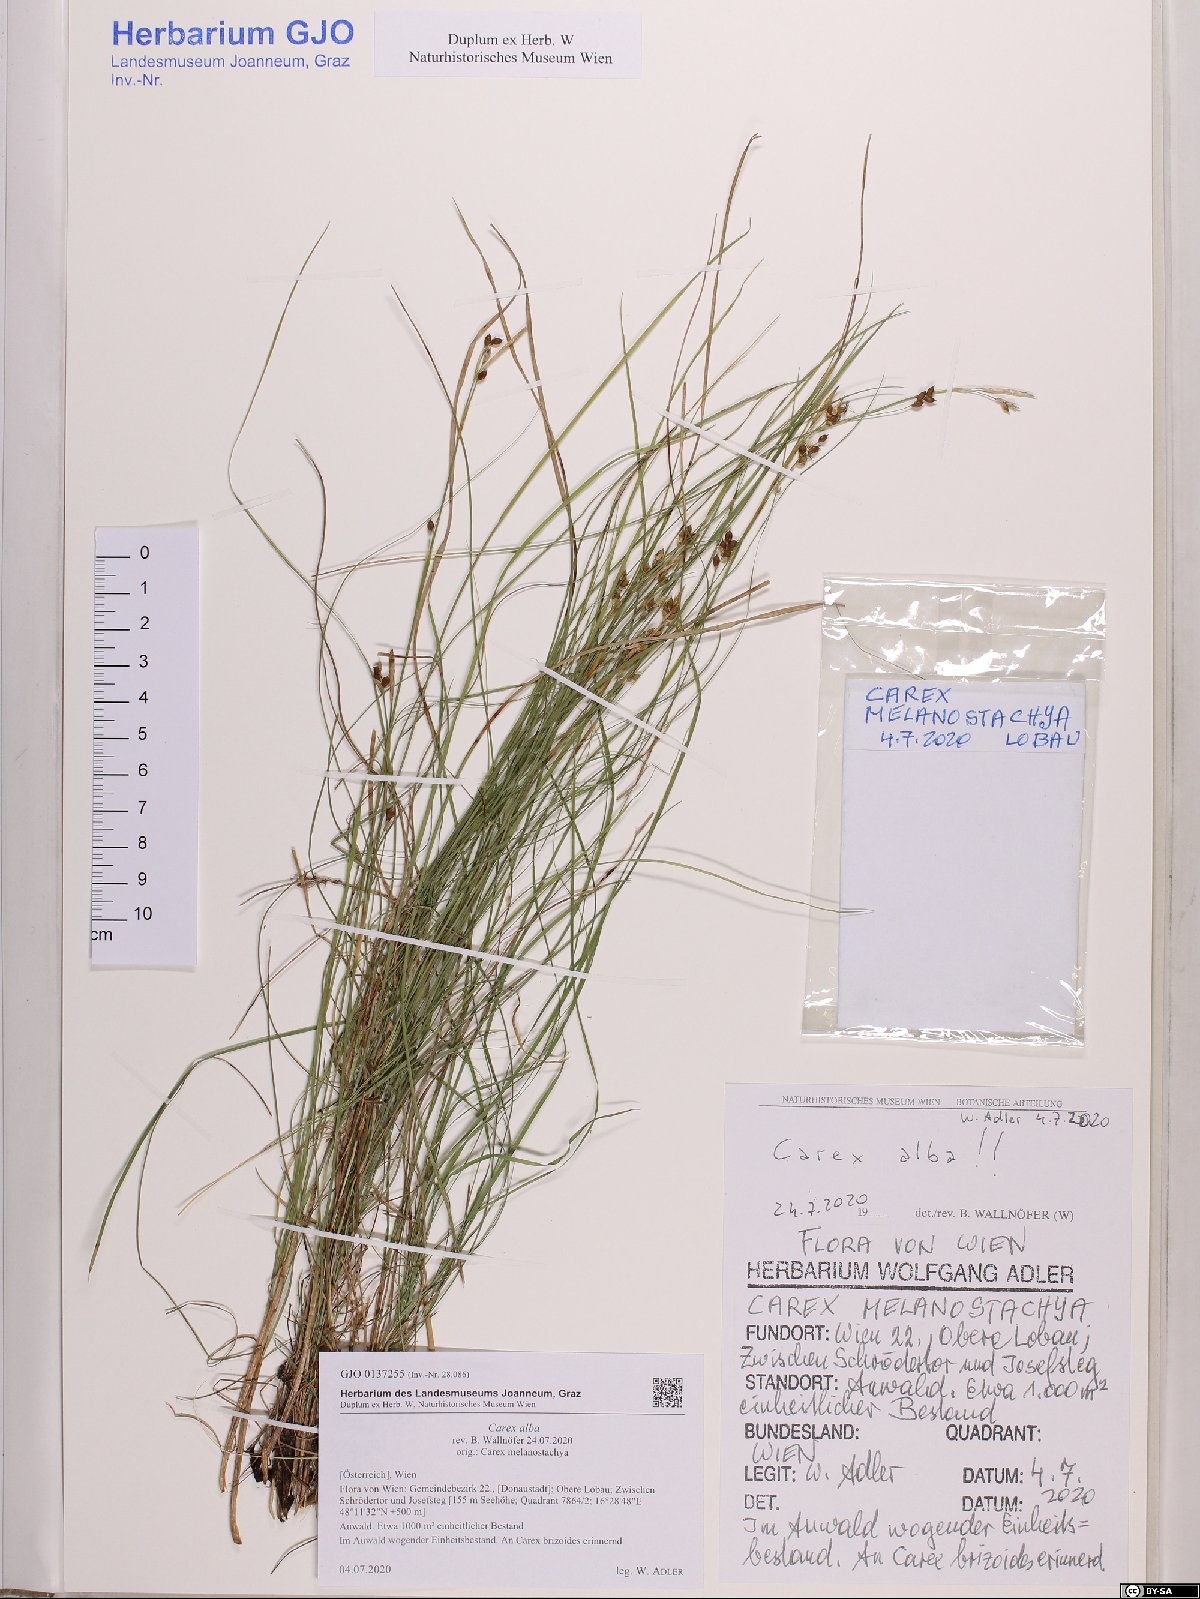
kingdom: Plantae
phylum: Tracheophyta
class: Liliopsida
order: Poales
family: Cyperaceae
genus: Carex
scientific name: Carex alba
